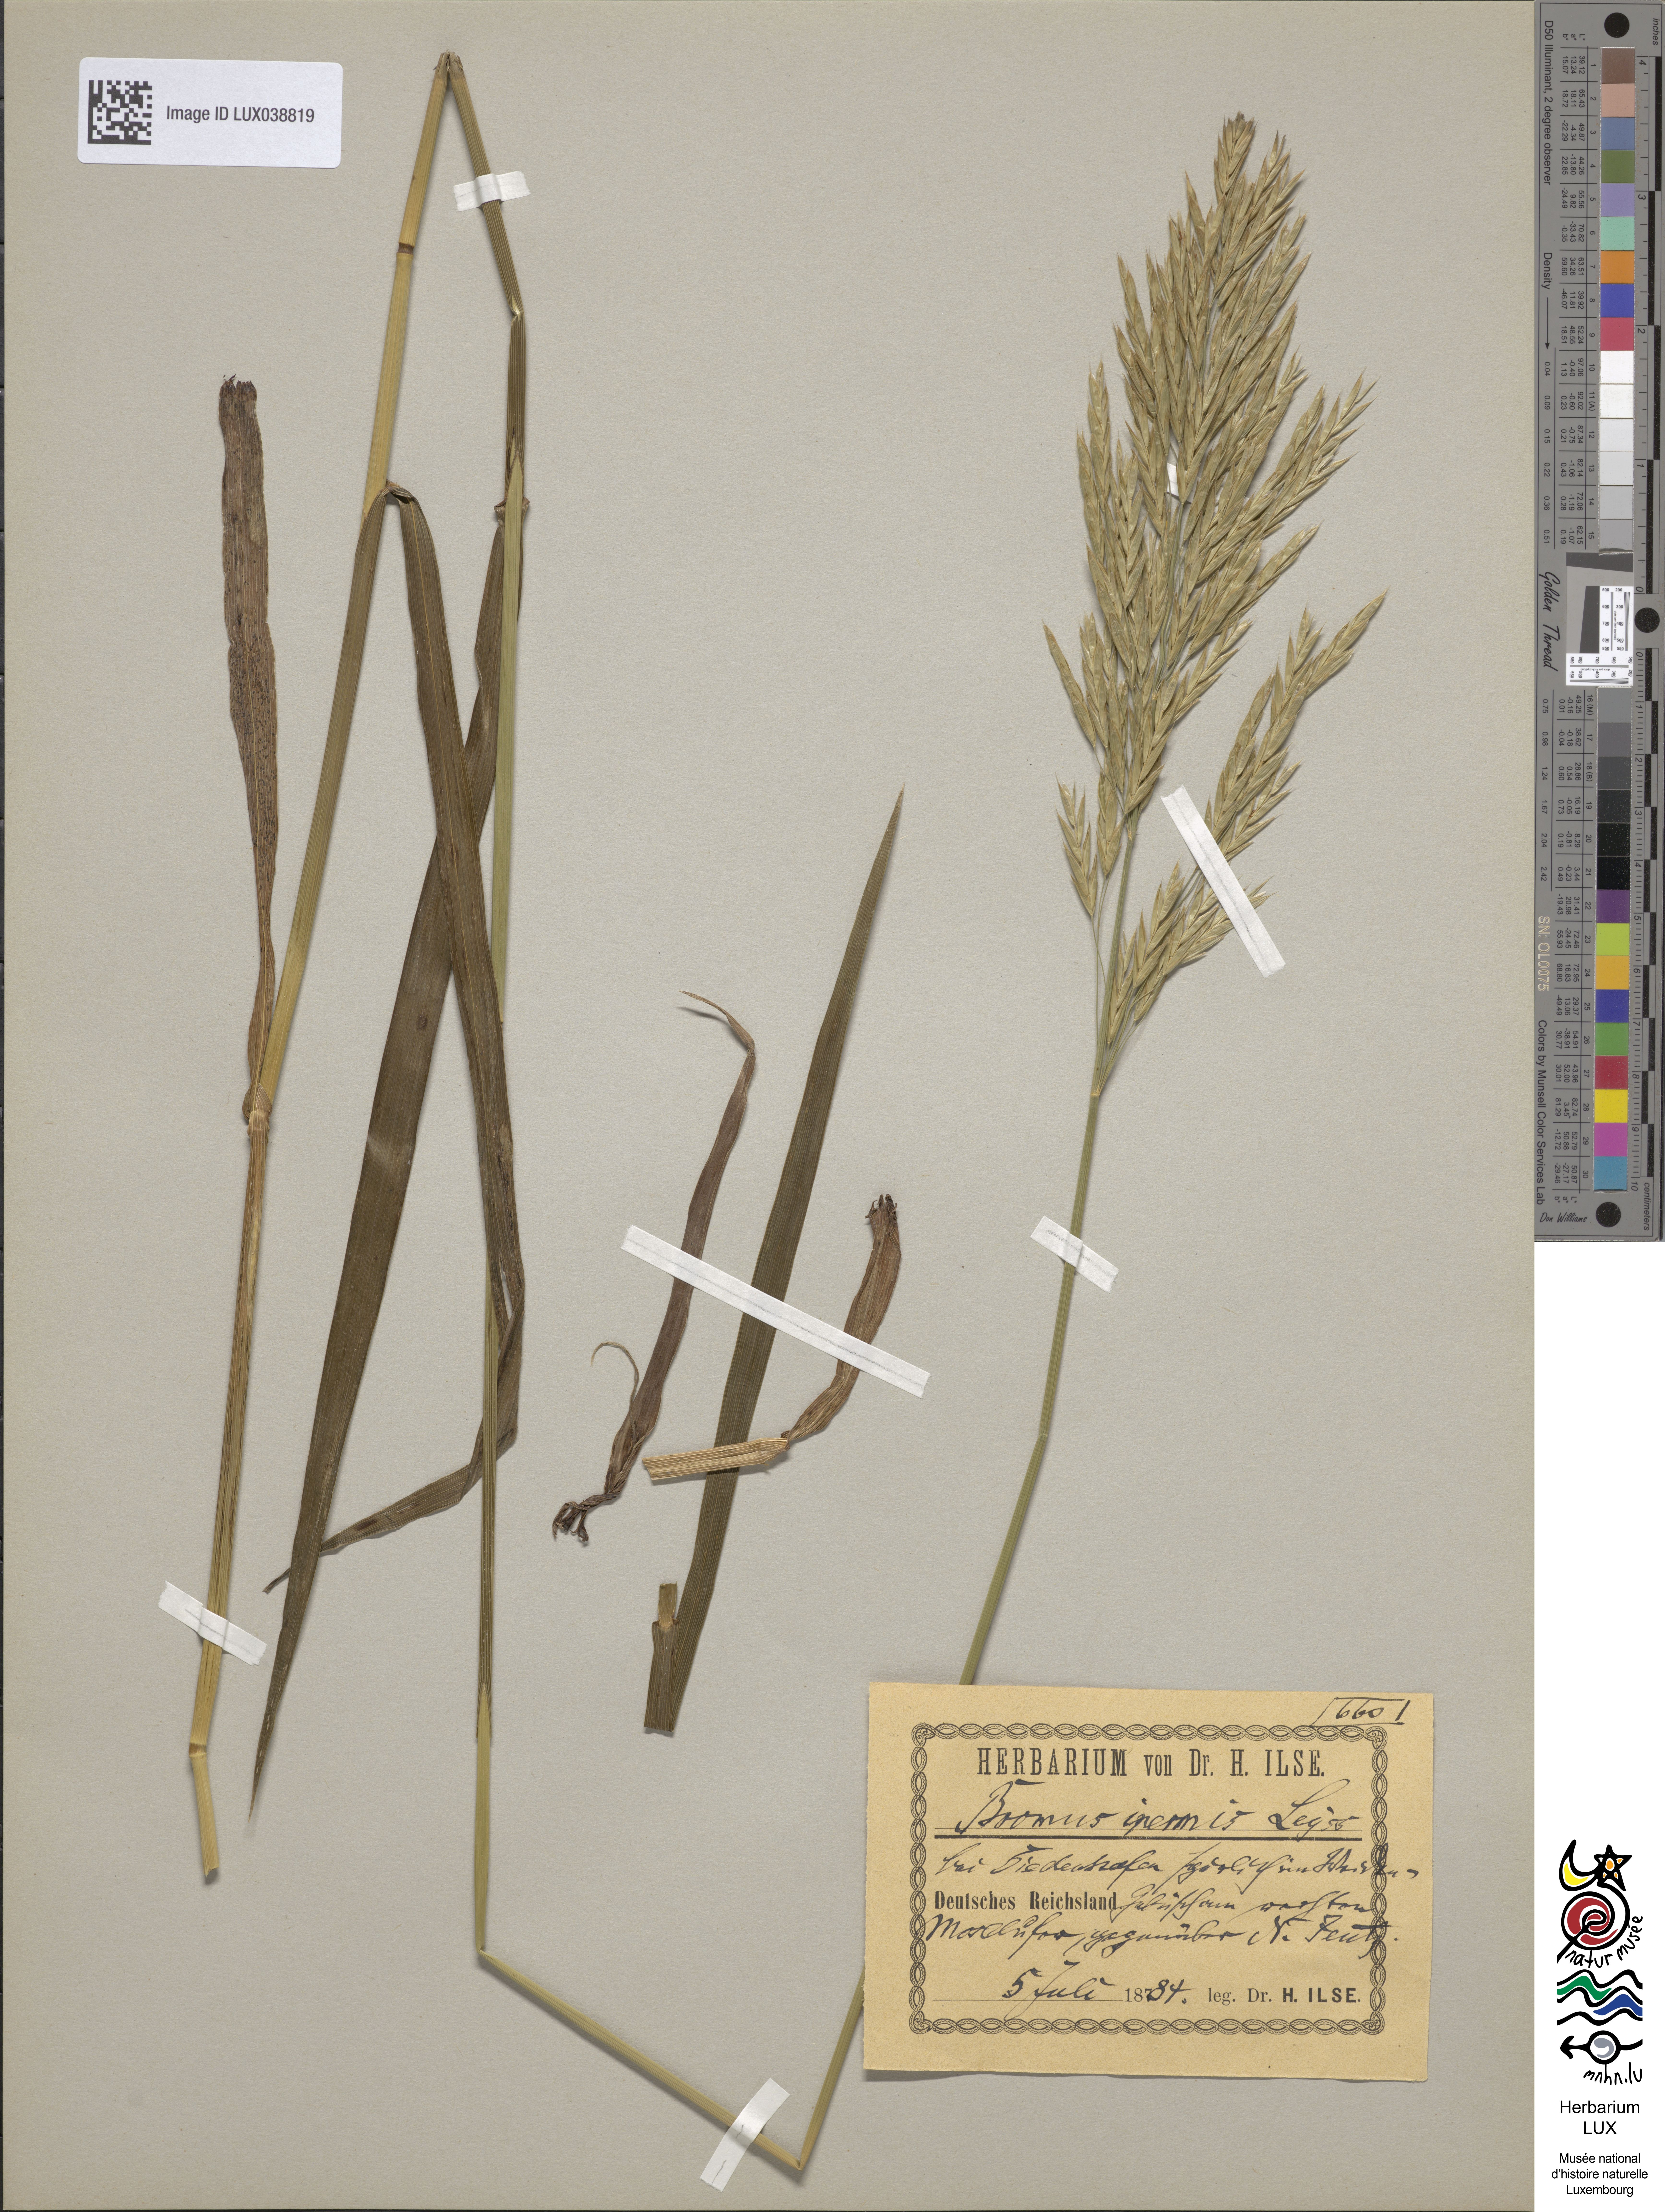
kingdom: Plantae
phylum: Tracheophyta
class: Liliopsida
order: Poales
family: Poaceae
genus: Bromus
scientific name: Bromus inermis
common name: Smooth brome
